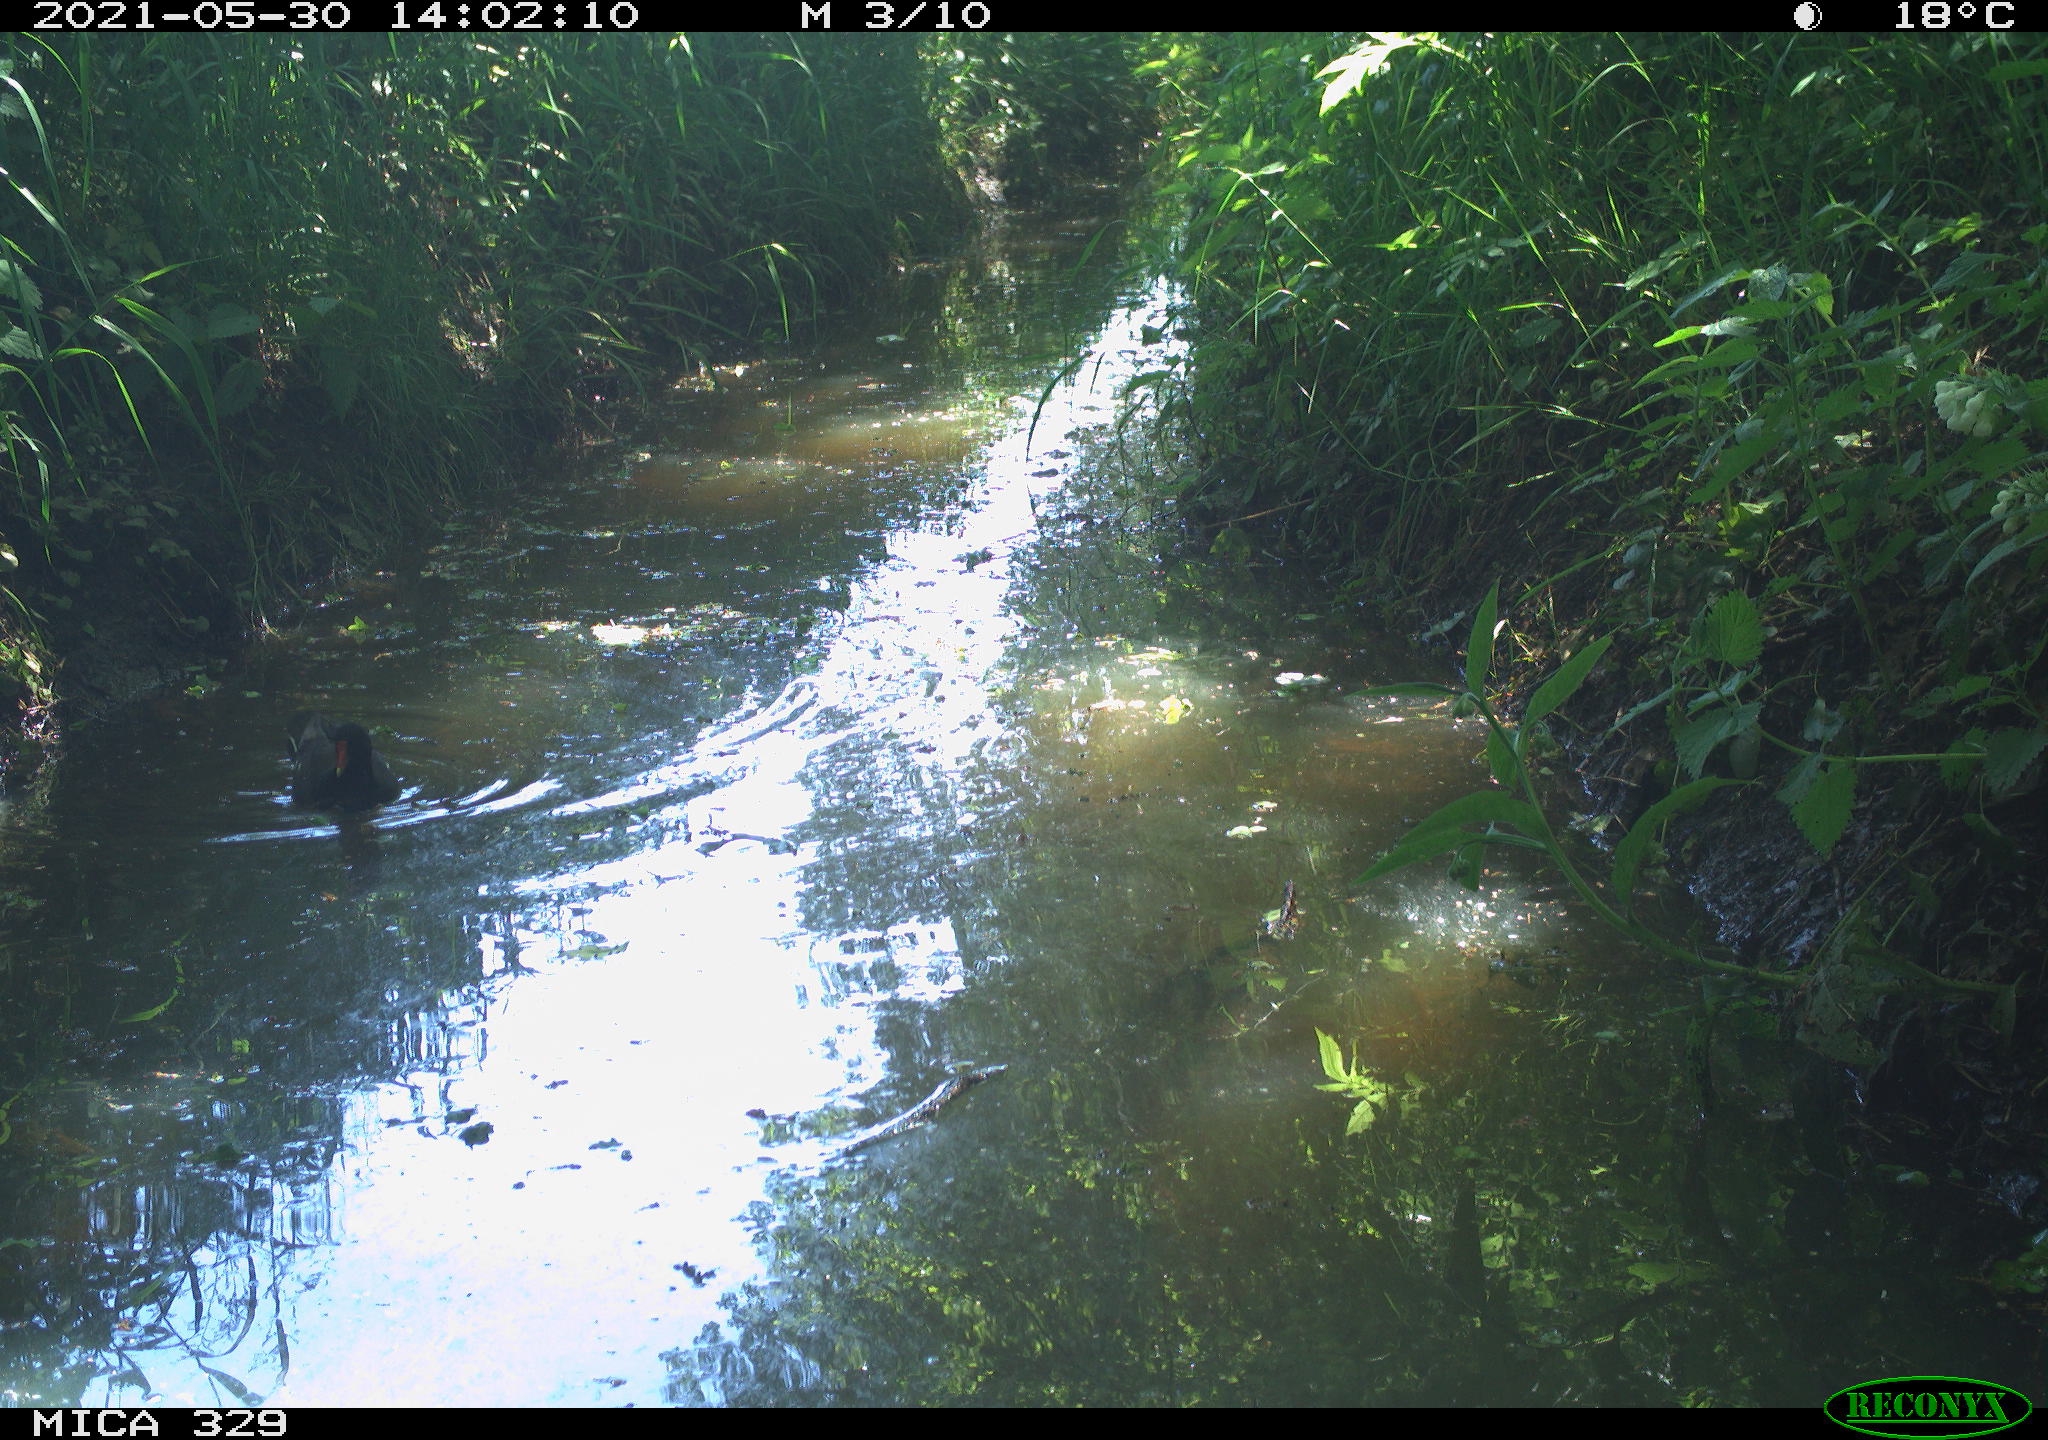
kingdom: Animalia
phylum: Chordata
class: Aves
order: Gruiformes
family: Rallidae
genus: Gallinula
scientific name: Gallinula chloropus
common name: Common moorhen
